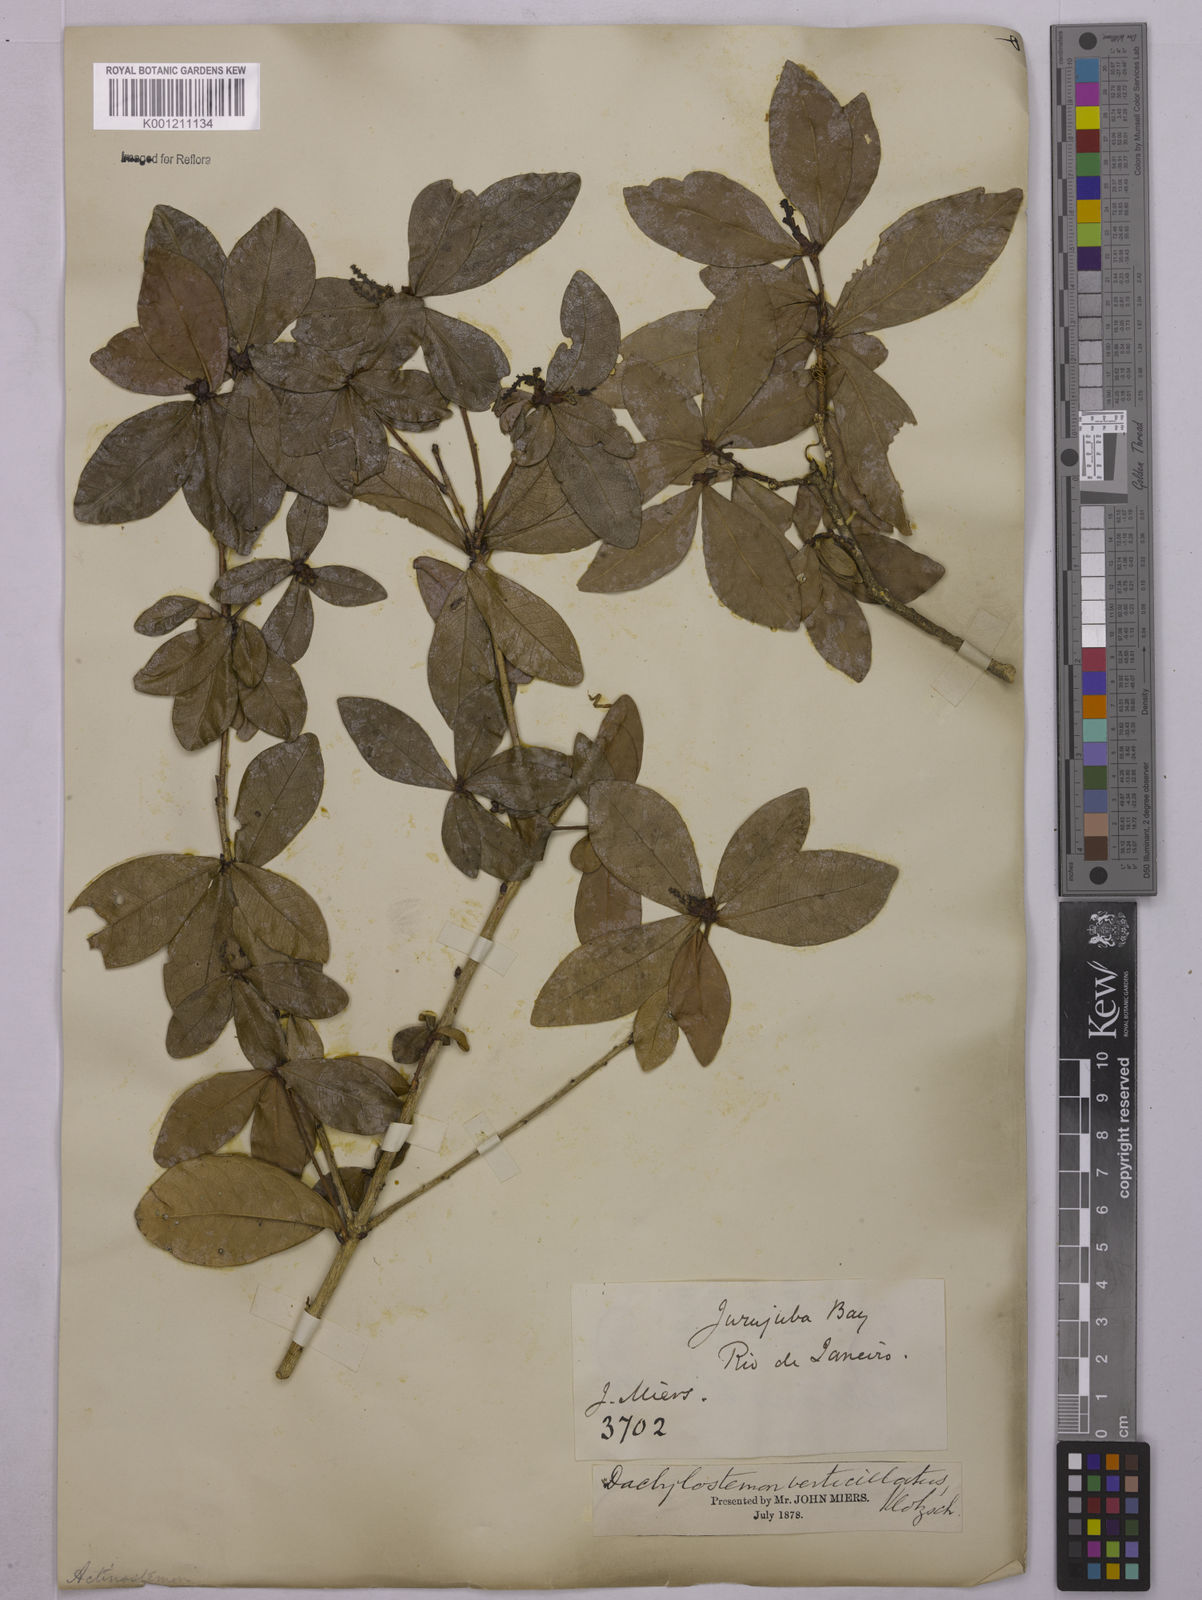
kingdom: Plantae
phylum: Tracheophyta
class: Magnoliopsida
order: Malpighiales
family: Euphorbiaceae
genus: Actinostemon
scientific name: Actinostemon verticillatus
